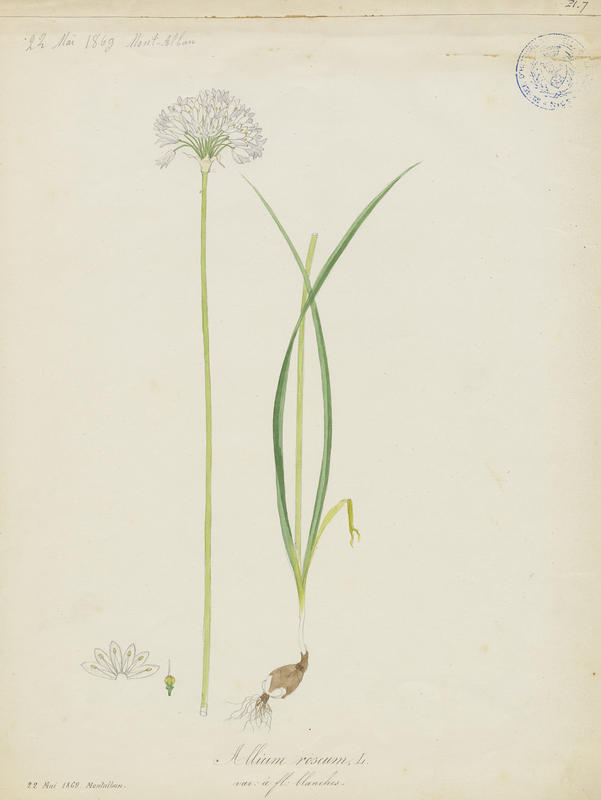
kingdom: Plantae
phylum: Tracheophyta
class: Liliopsida
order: Asparagales
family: Amaryllidaceae
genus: Allium
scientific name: Allium roseum
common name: Rosy garlic
